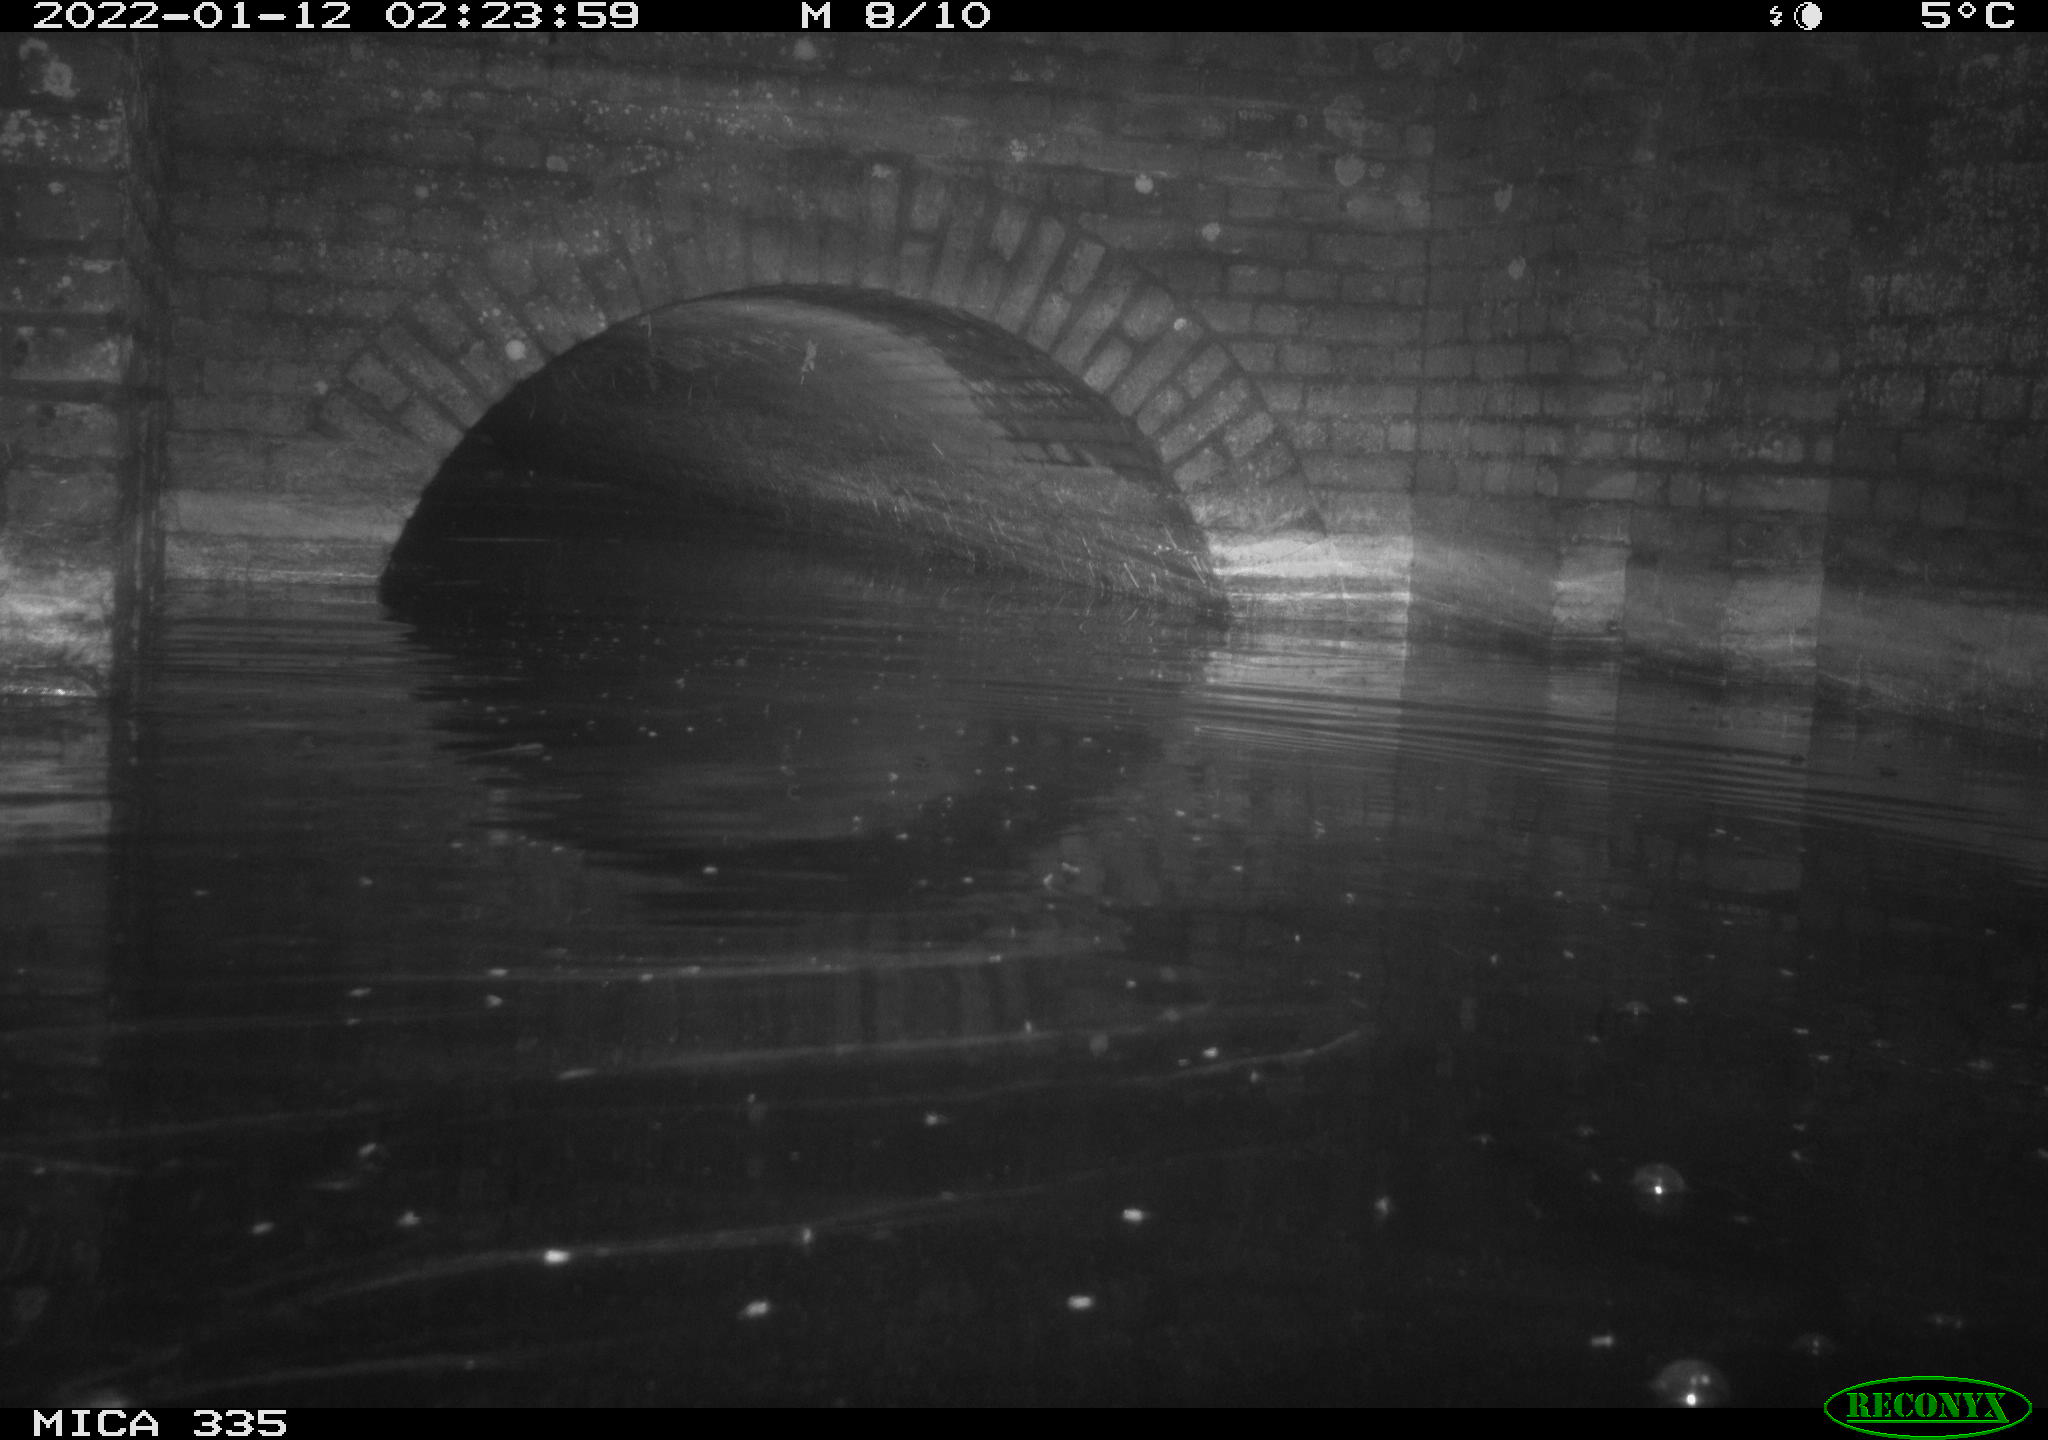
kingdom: Animalia
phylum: Chordata
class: Mammalia
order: Carnivora
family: Mustelidae
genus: Lutra
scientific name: Lutra lutra
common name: European otter
